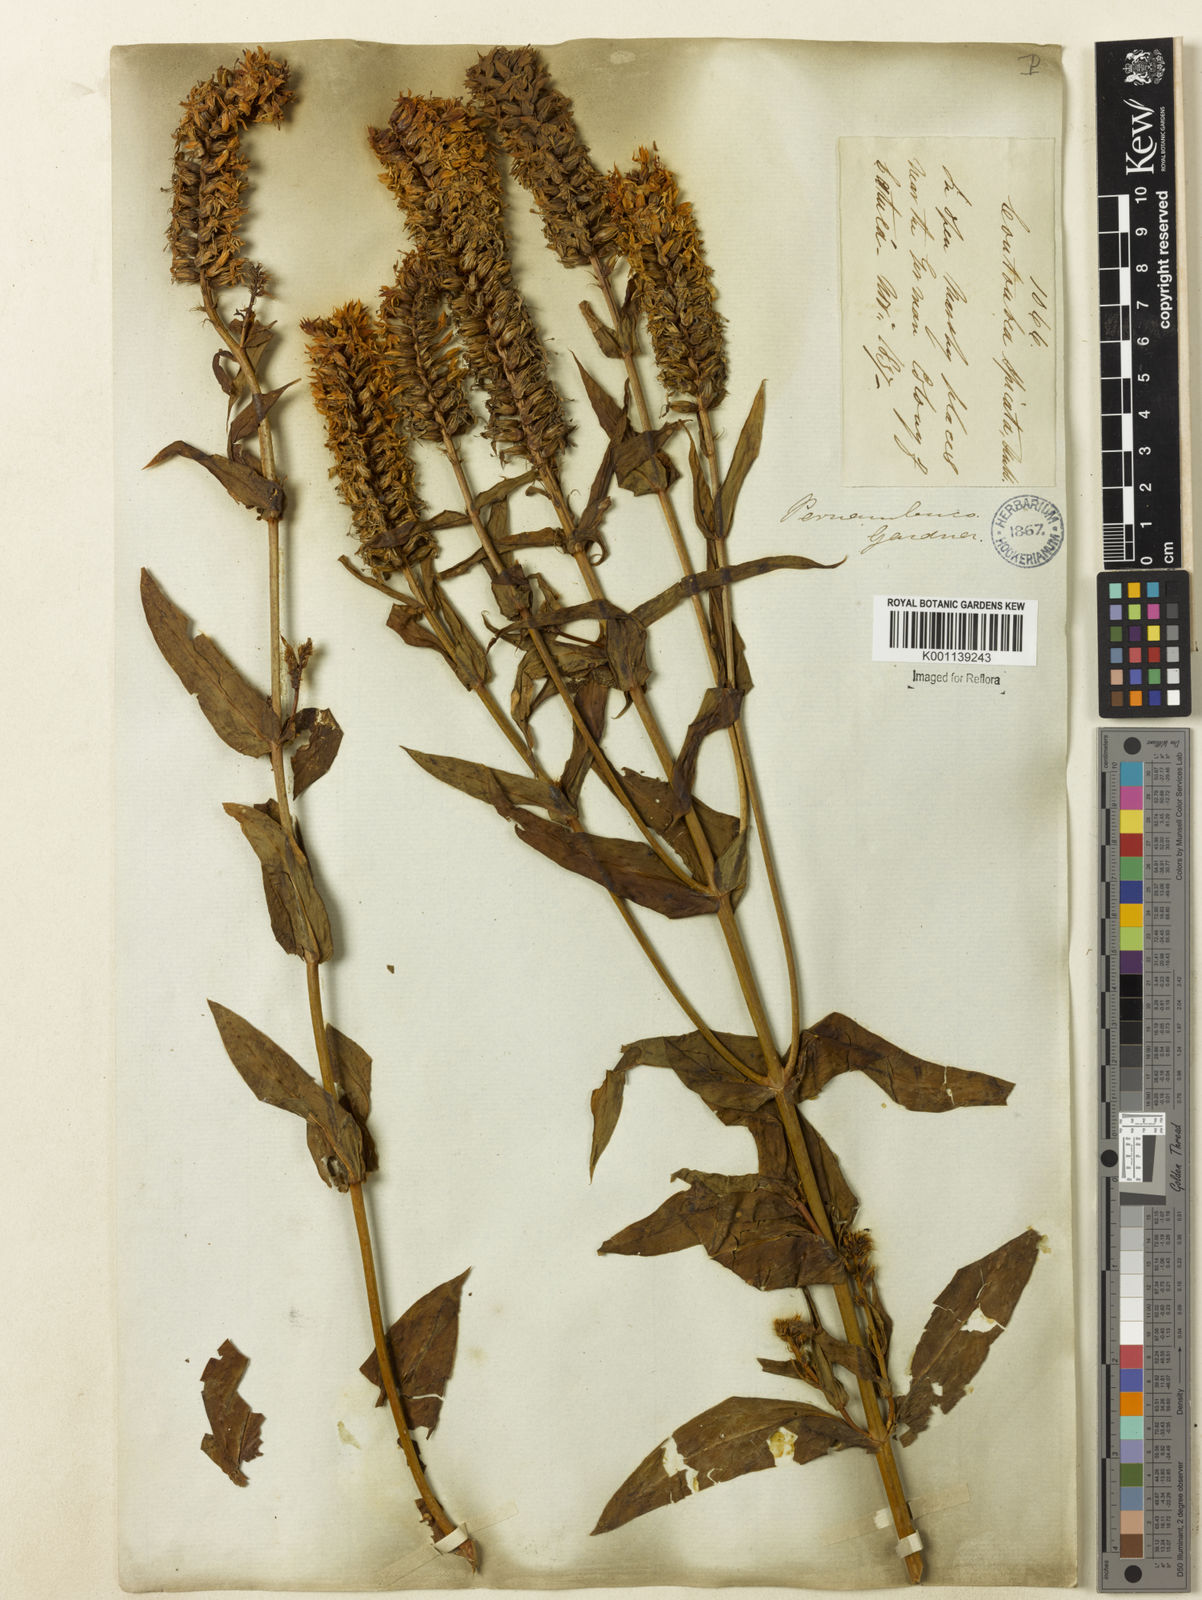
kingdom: Plantae
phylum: Tracheophyta
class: Magnoliopsida
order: Gentianales
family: Gentianaceae
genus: Coutoubea
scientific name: Coutoubea spicata
